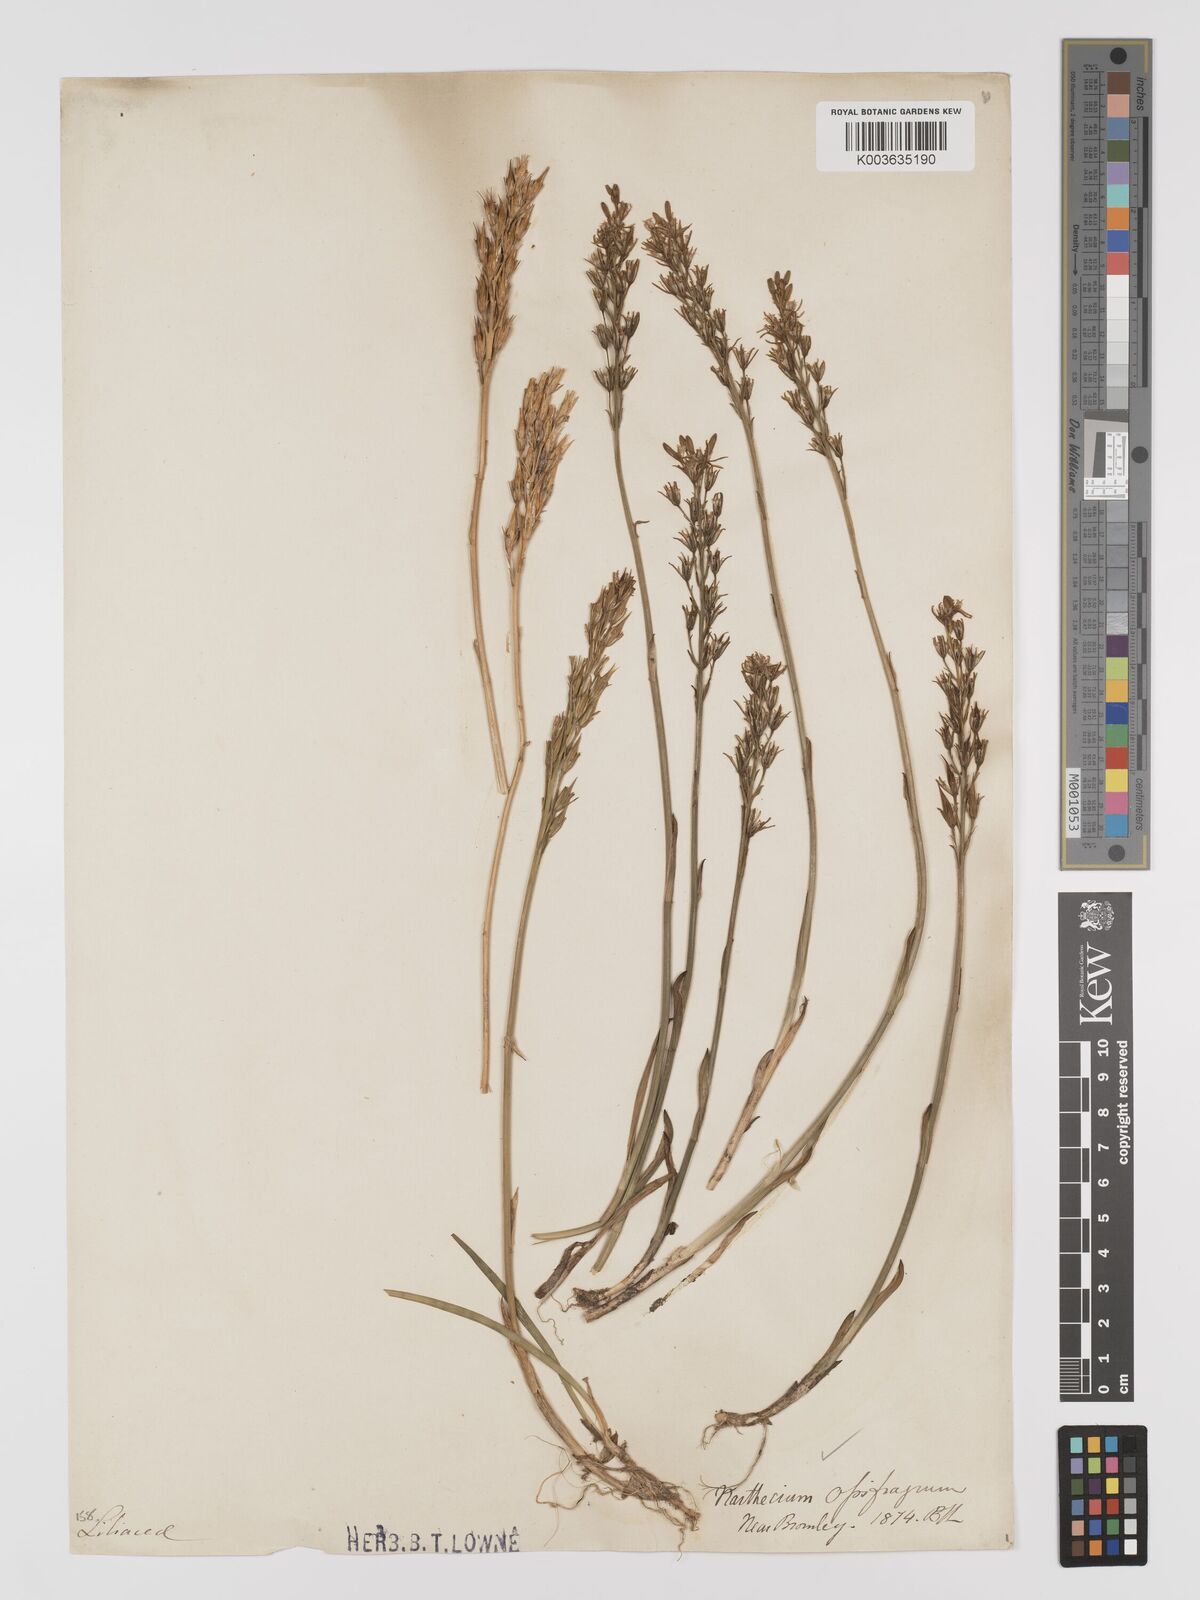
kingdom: Plantae
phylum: Tracheophyta
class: Liliopsida
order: Dioscoreales
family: Nartheciaceae
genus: Narthecium
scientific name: Narthecium
